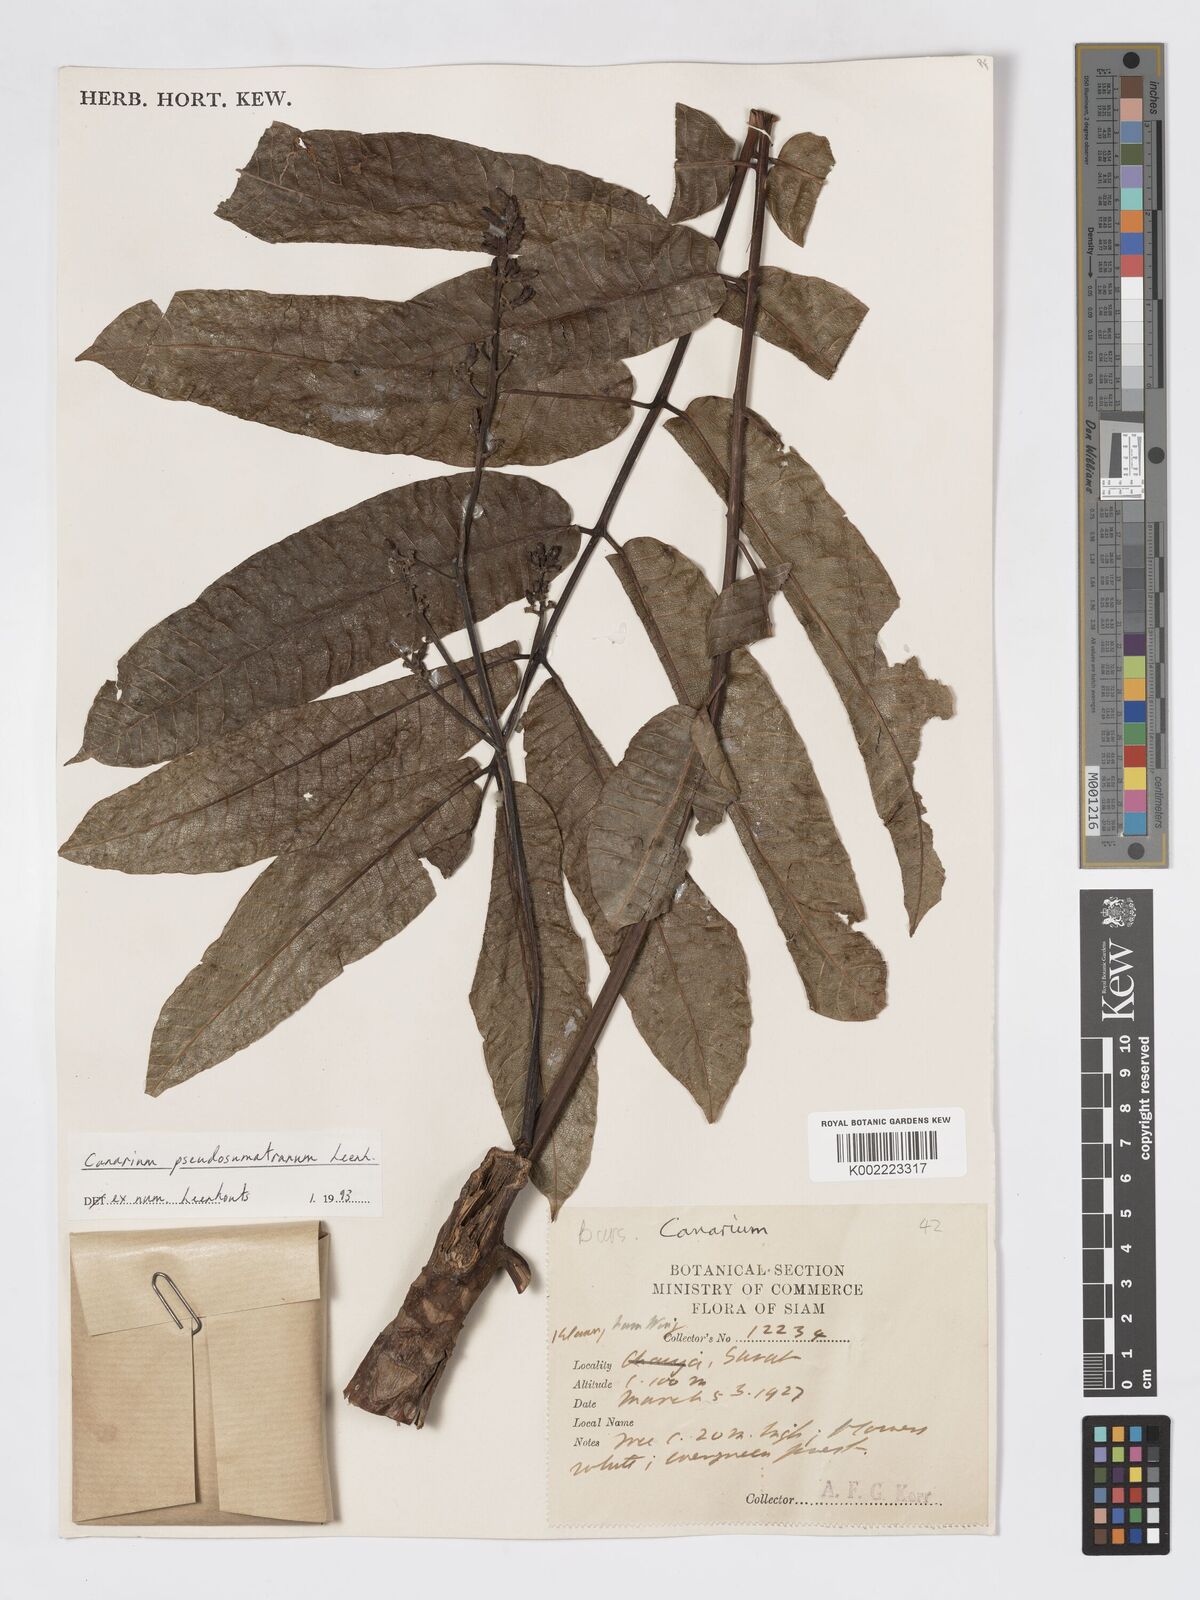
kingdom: Plantae
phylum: Tracheophyta
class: Magnoliopsida
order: Sapindales
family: Burseraceae
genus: Canarium
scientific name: Canarium pseudosumatranum
